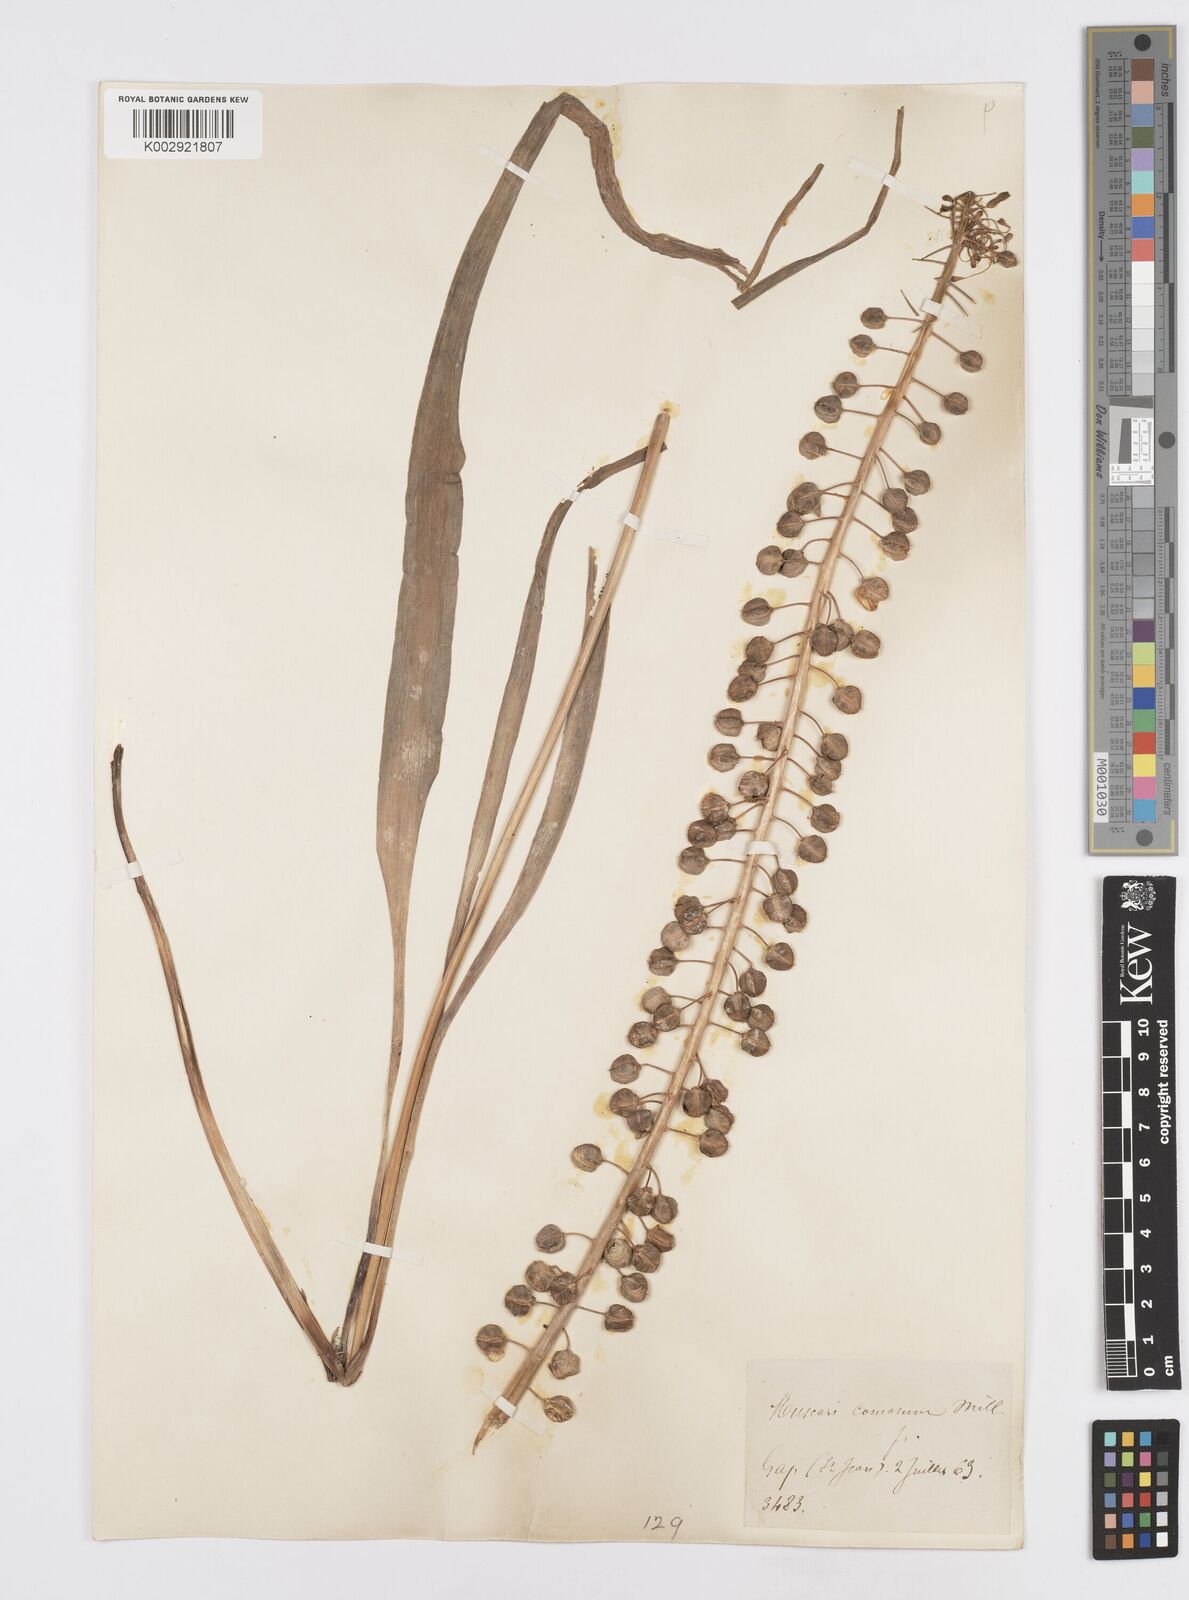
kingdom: Plantae
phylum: Tracheophyta
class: Liliopsida
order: Asparagales
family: Asparagaceae
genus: Muscari
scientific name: Muscari comosum
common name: Tassel hyacinth
